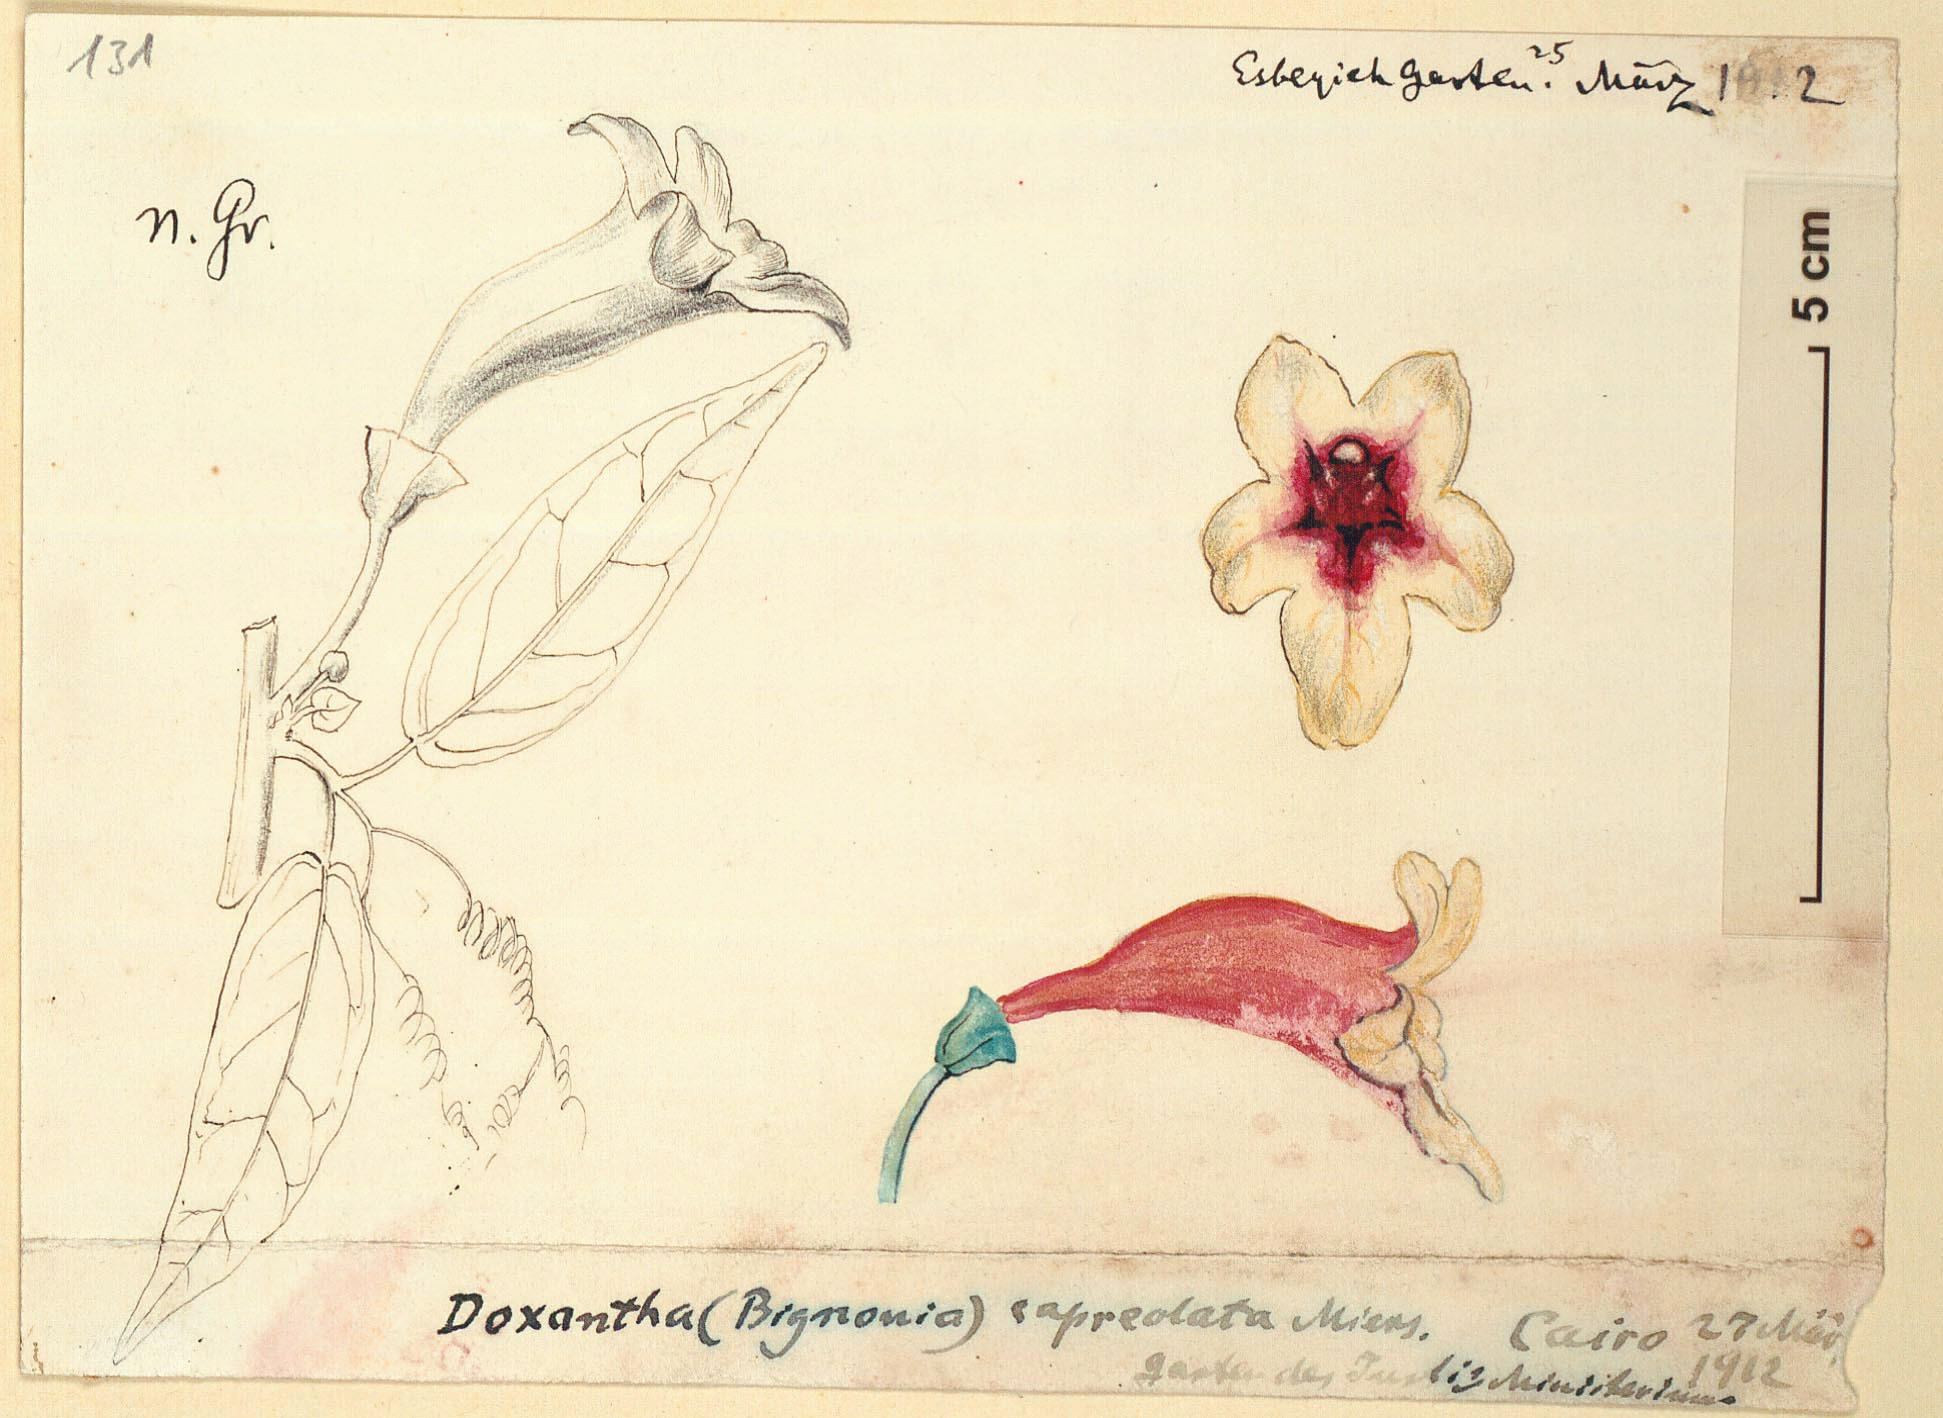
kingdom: Plantae
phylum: Tracheophyta
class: Magnoliopsida
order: Lamiales
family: Bignoniaceae
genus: Bignonia
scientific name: Bignonia capreolata
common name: Crossvine
